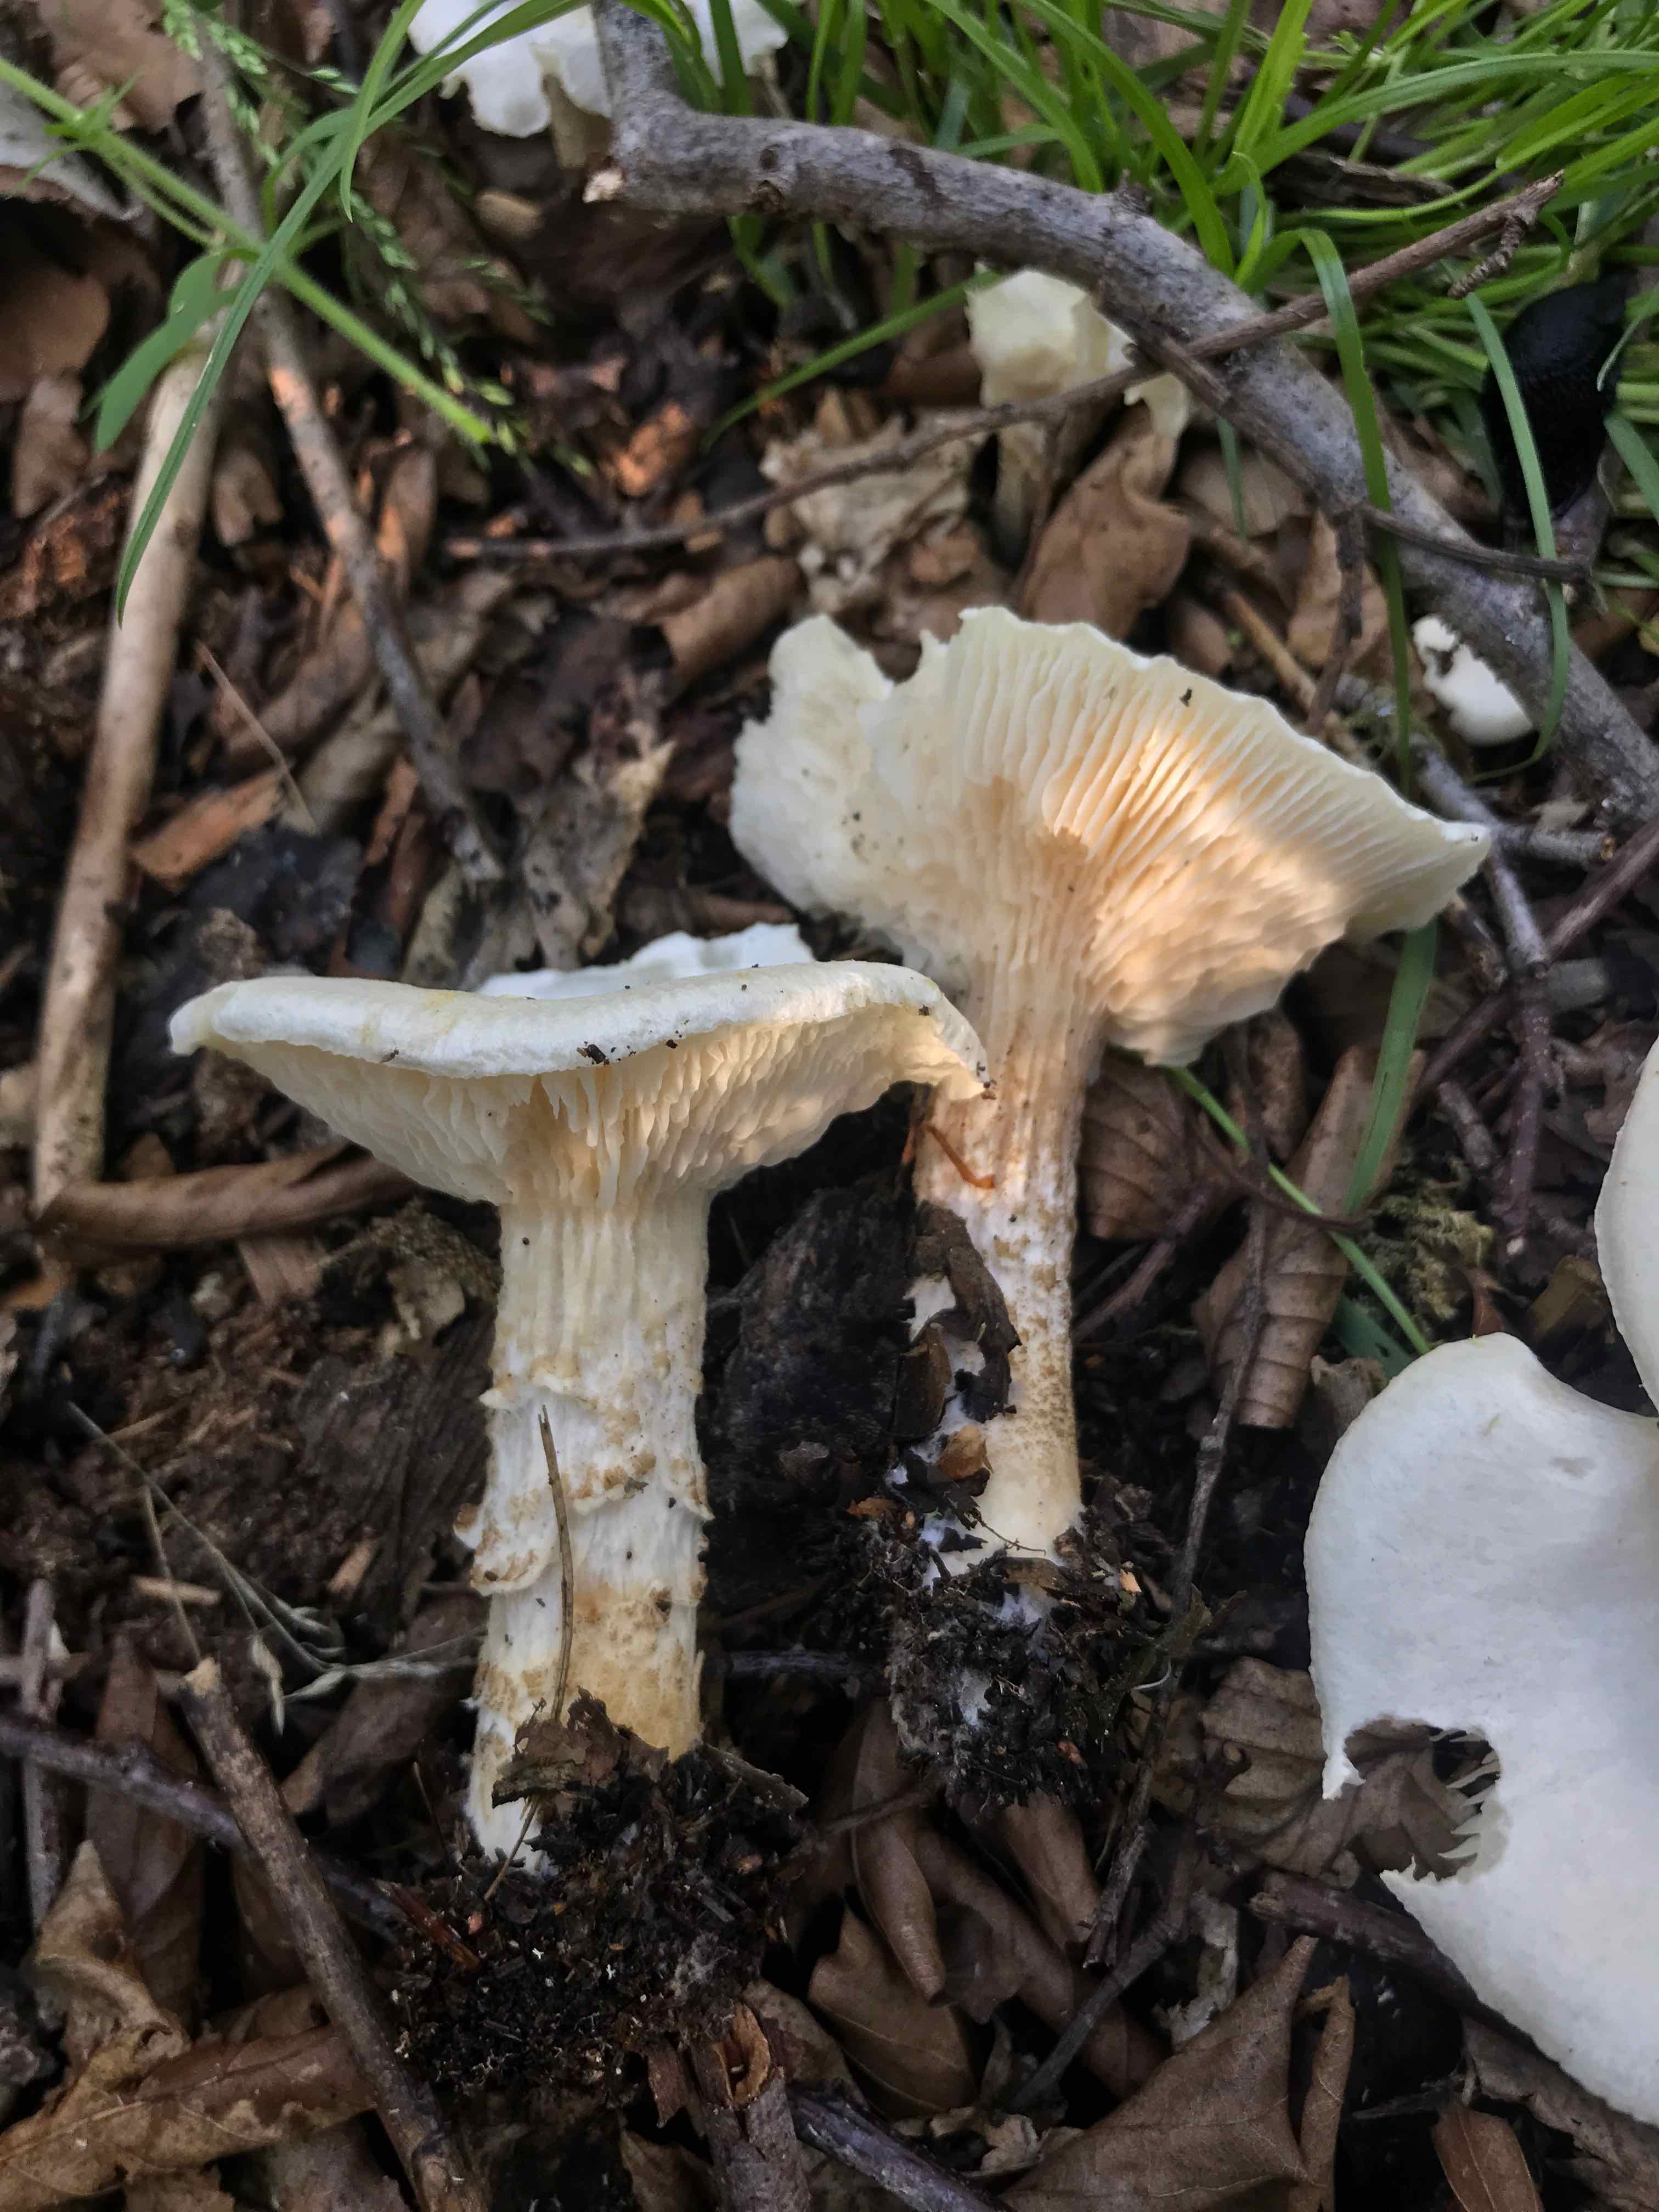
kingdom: Fungi
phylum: Basidiomycota
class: Agaricomycetes
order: Agaricales
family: Tricholomataceae
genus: Melanoleuca
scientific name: Melanoleuca verrucipes
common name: rufodet munkehat
